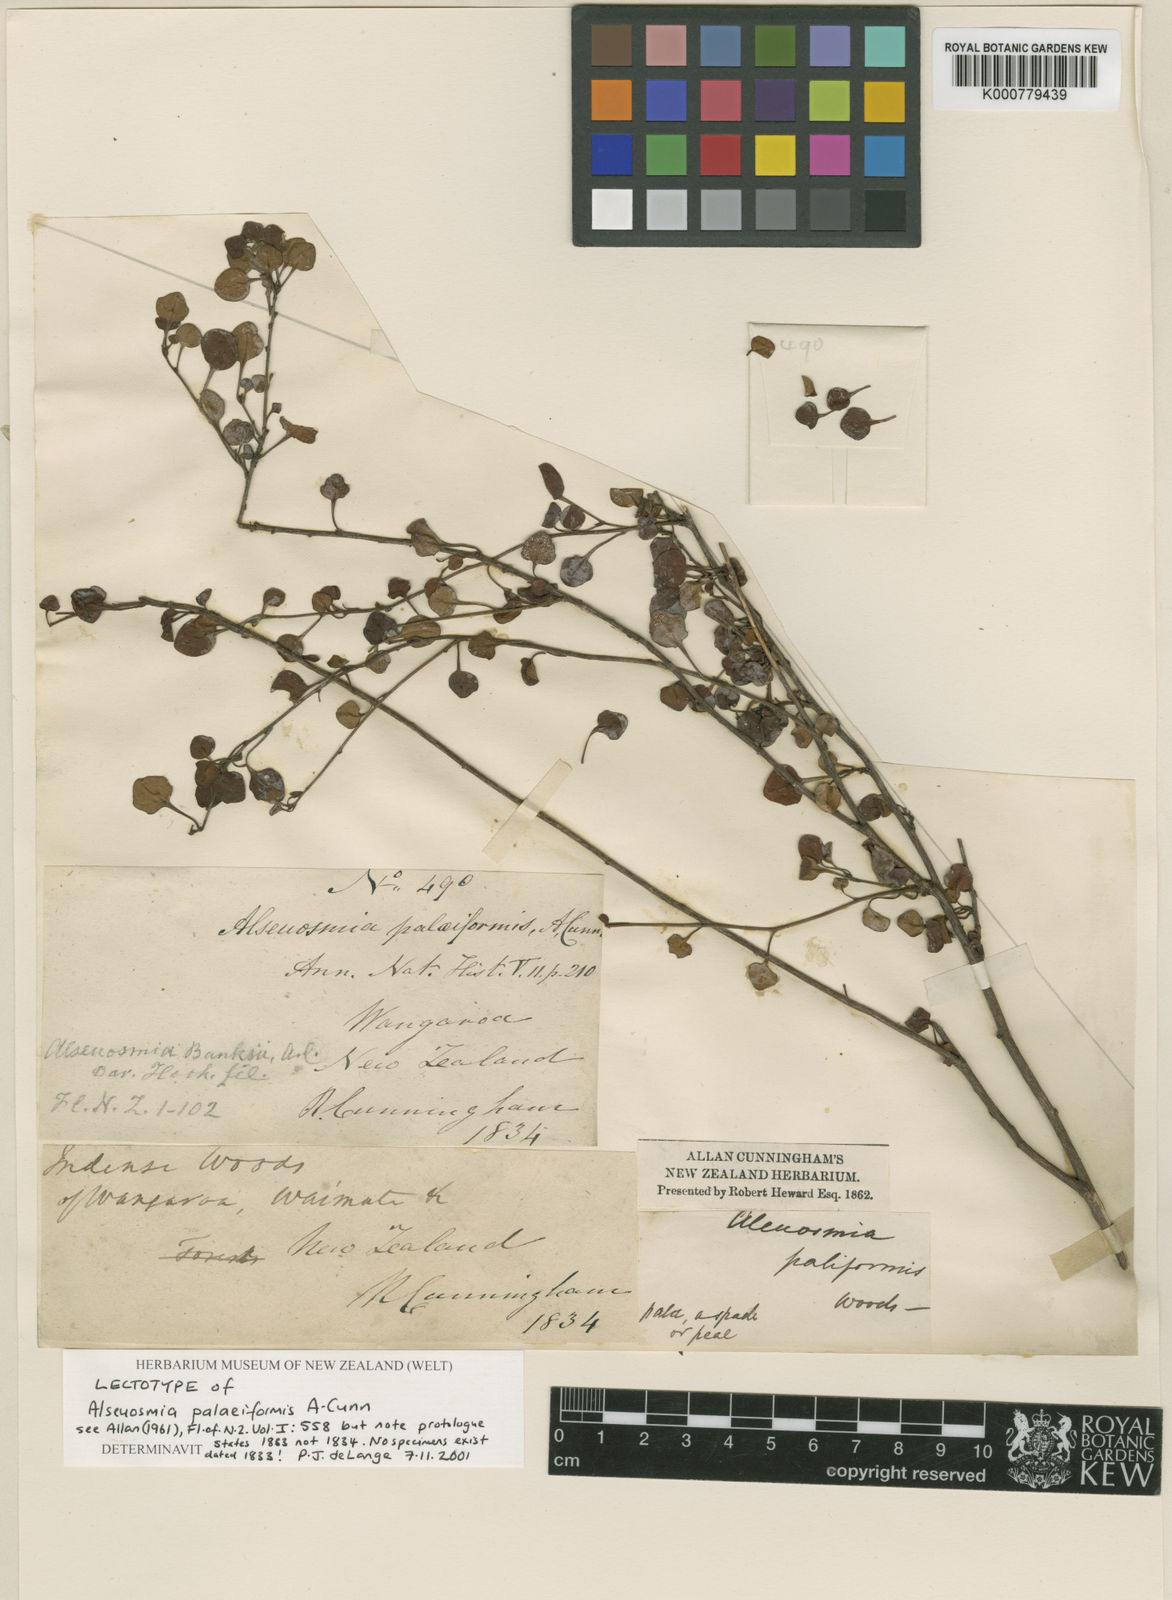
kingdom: Plantae
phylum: Tracheophyta
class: Magnoliopsida
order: Asterales
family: Alseuosmiaceae
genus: Alseuosmia
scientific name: Alseuosmia banksii
